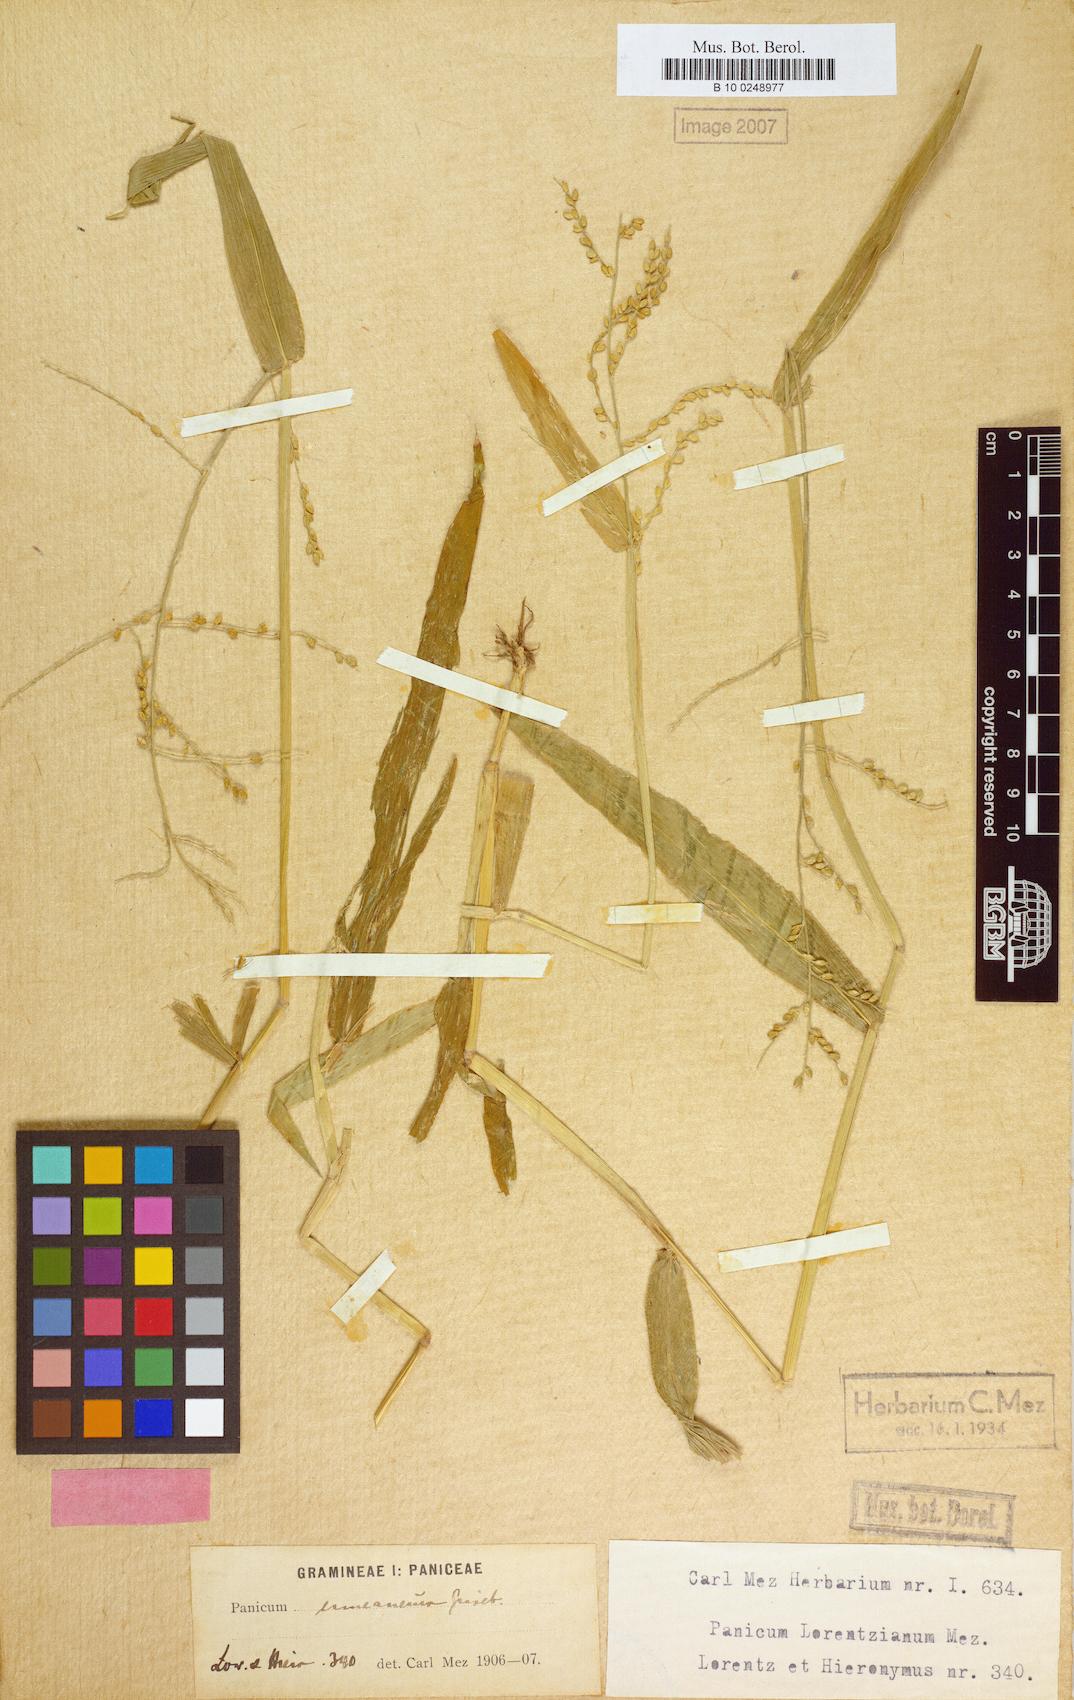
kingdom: Plantae
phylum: Tracheophyta
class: Liliopsida
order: Poales
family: Poaceae
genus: Urochloa
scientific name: Urochloa lorentziana
